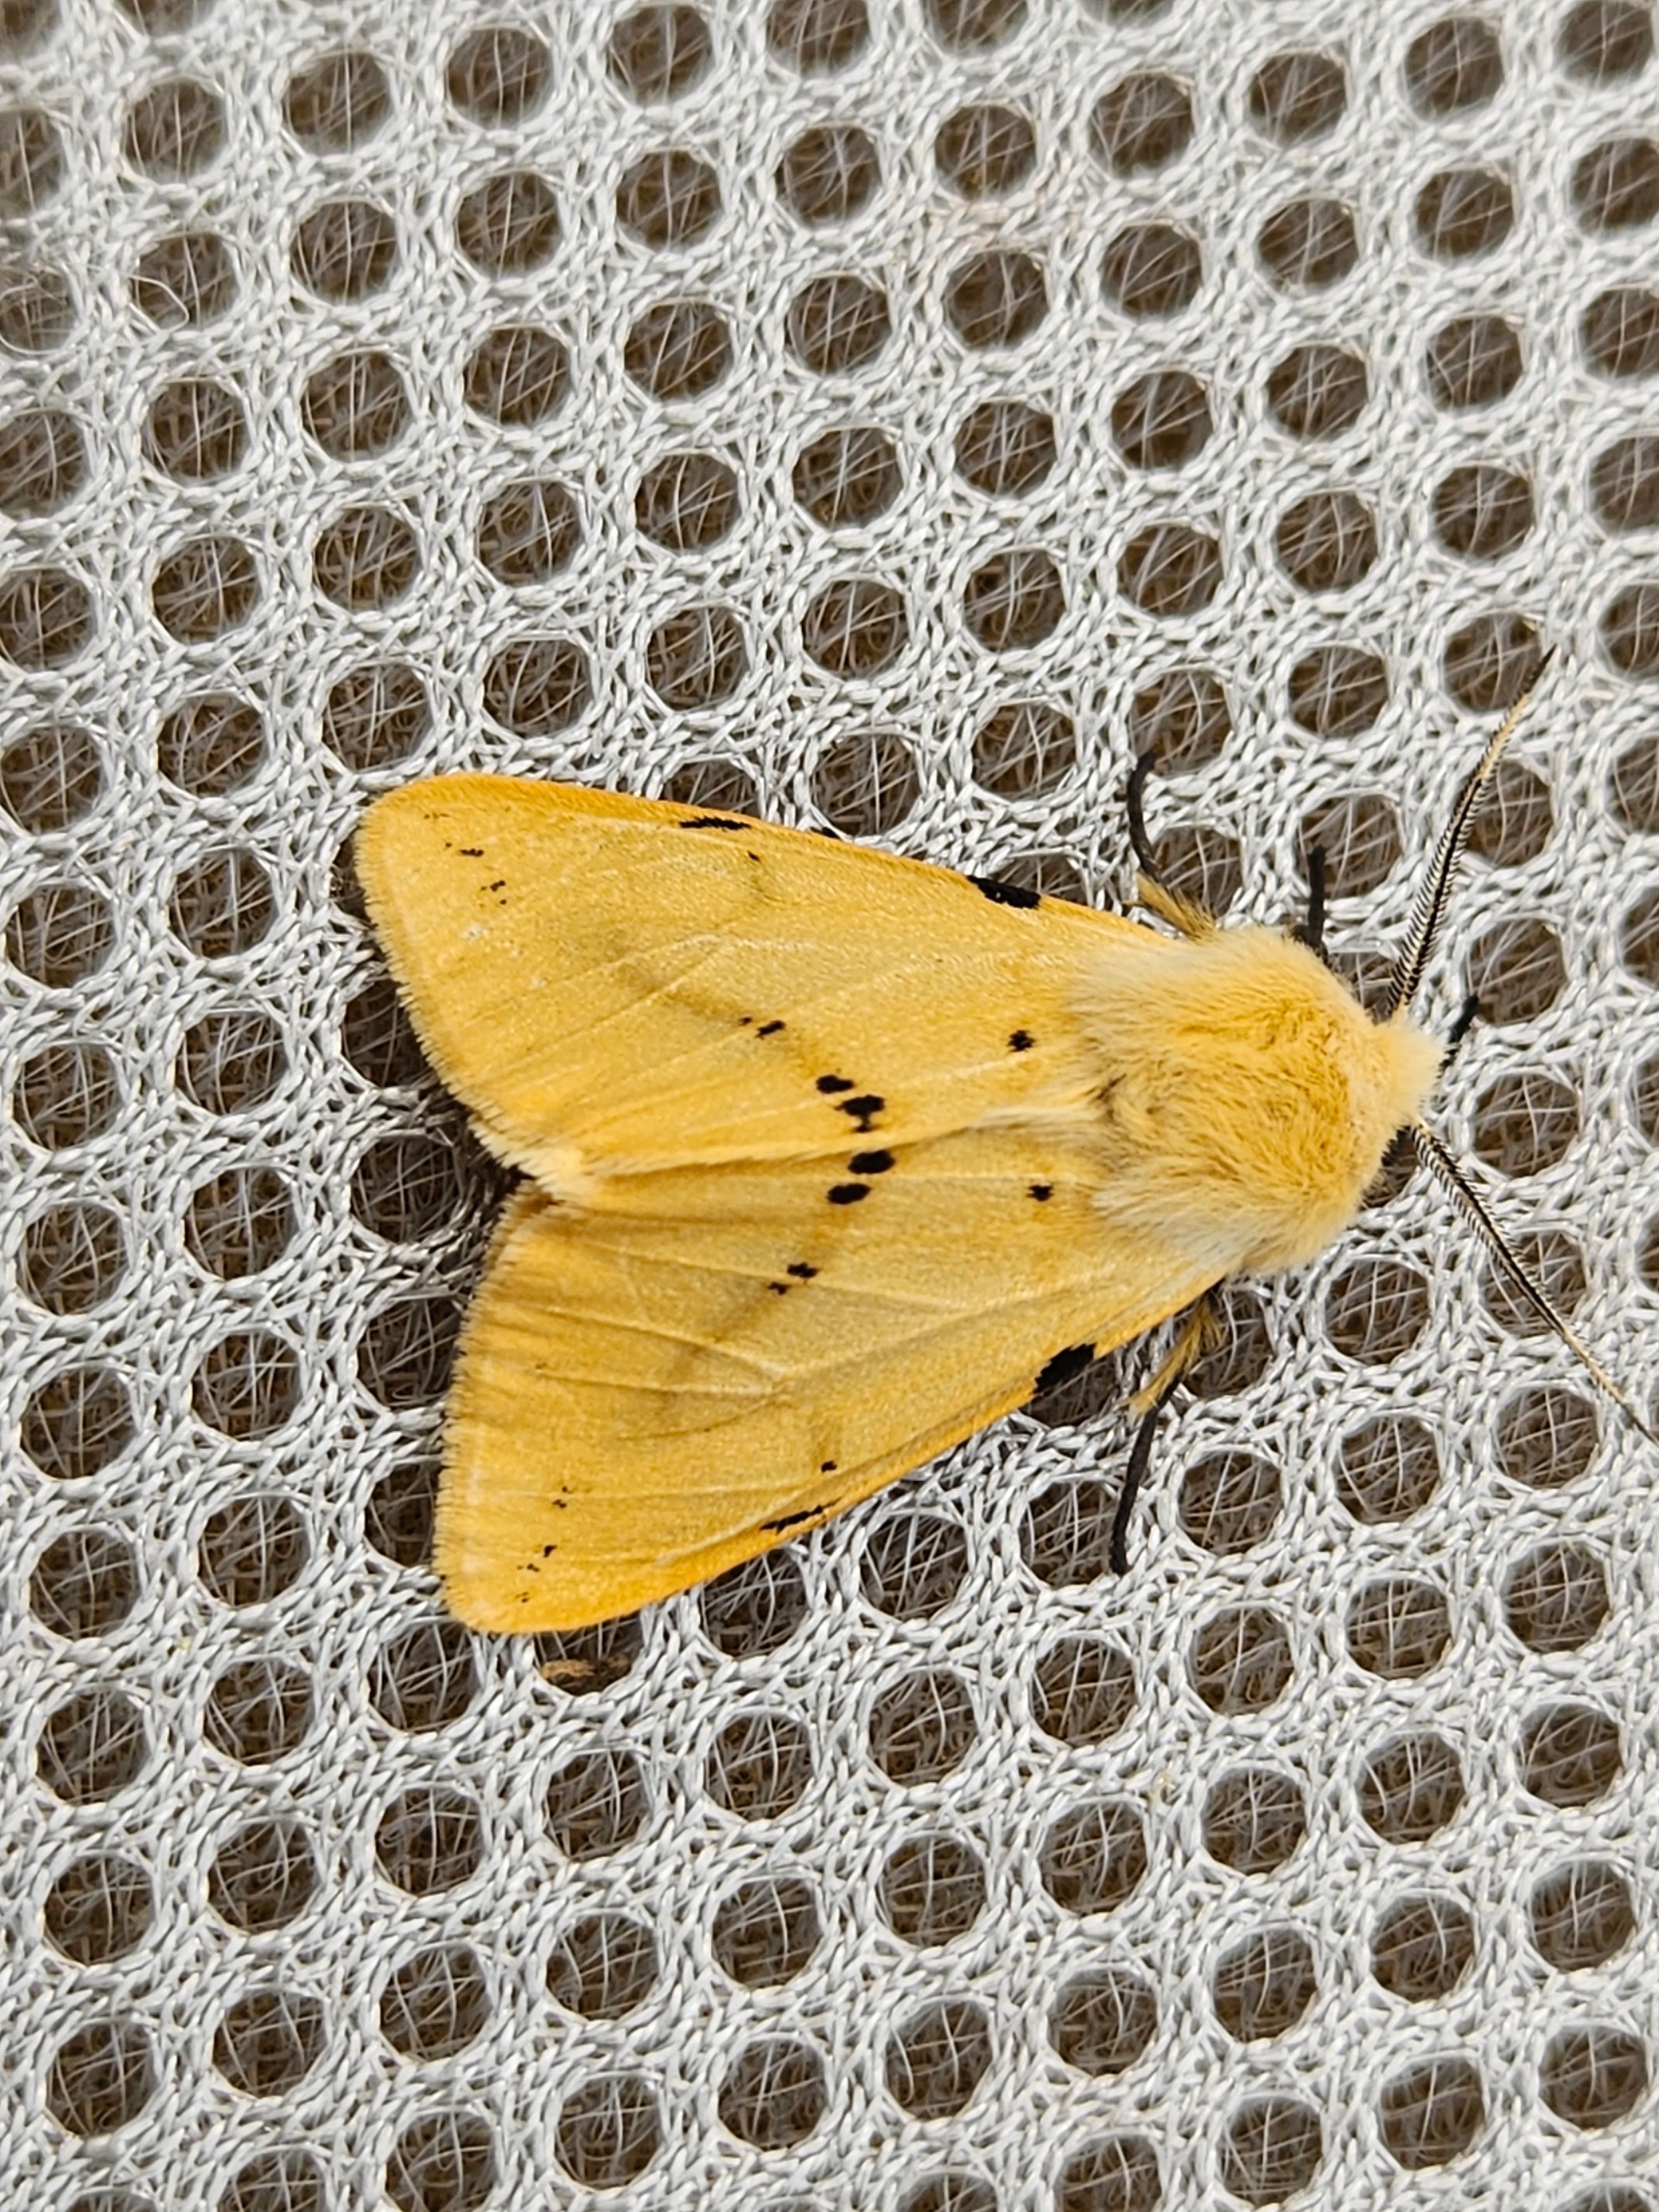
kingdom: Animalia
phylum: Arthropoda
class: Insecta
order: Lepidoptera
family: Erebidae
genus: Spilarctia
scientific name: Spilarctia lutea
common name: Gul tigerspinder
